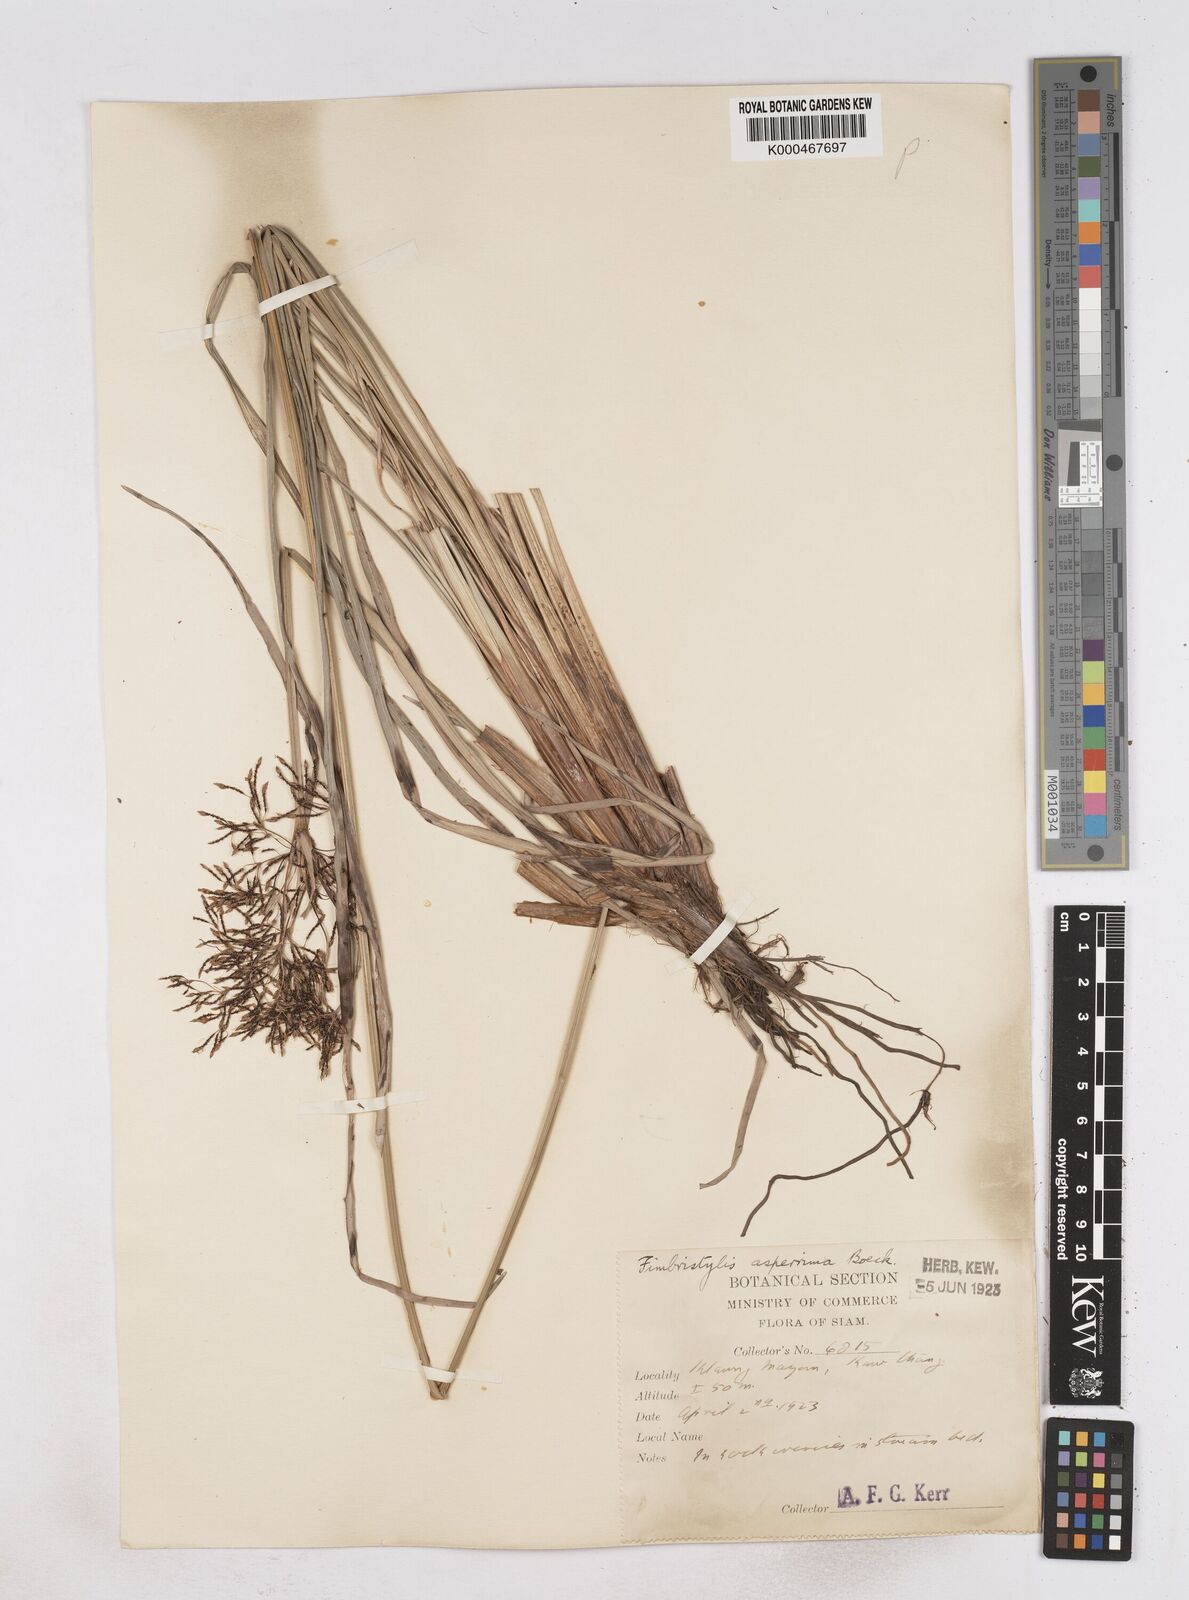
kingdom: Plantae
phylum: Tracheophyta
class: Liliopsida
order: Poales
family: Cyperaceae
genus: Fimbristylis
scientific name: Fimbristylis dura
